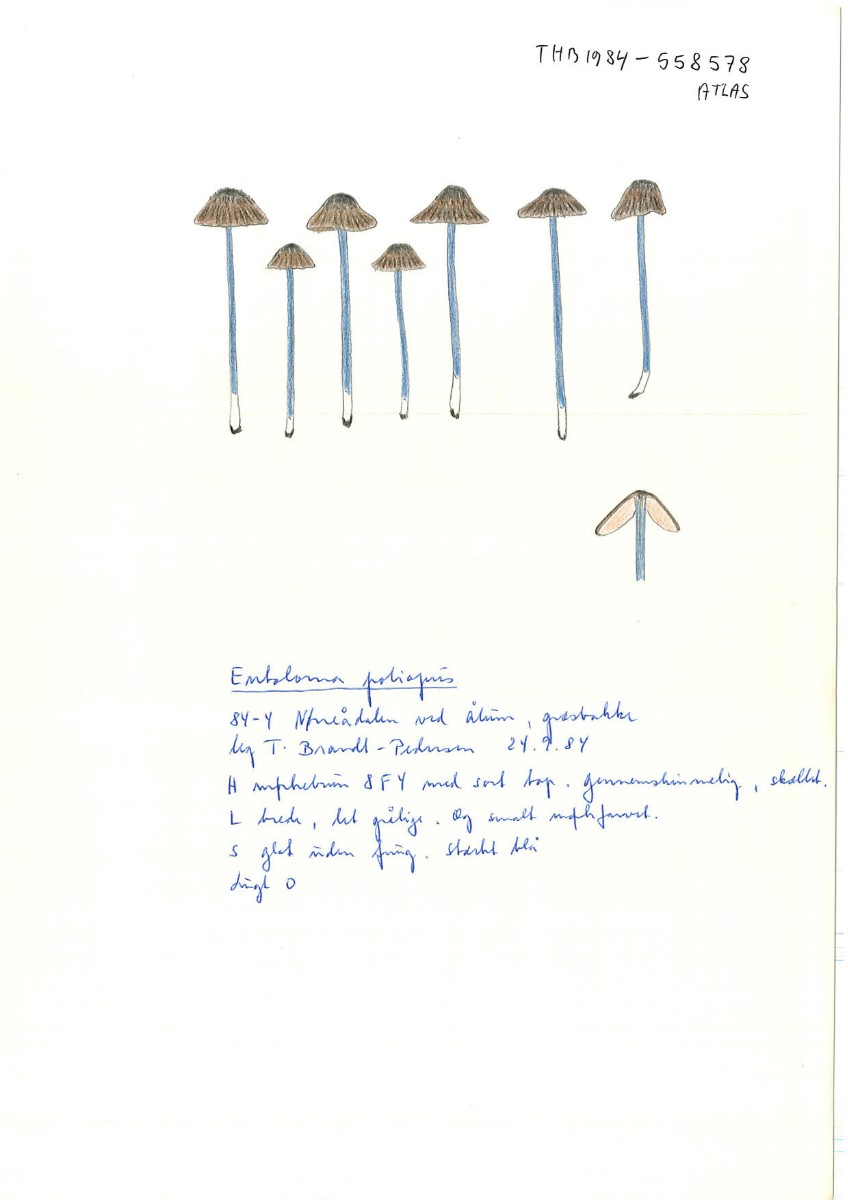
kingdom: Fungi
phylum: Basidiomycota
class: Agaricomycetes
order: Agaricales
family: Entolomataceae
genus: Entoloma
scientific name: Entoloma poliopus
